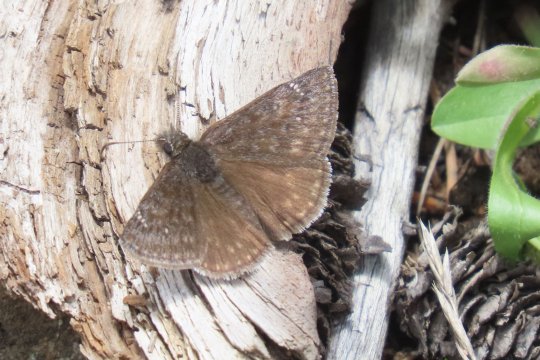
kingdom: Animalia
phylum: Arthropoda
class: Insecta
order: Lepidoptera
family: Hesperiidae
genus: Gesta
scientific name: Gesta
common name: Persius Duskywing
